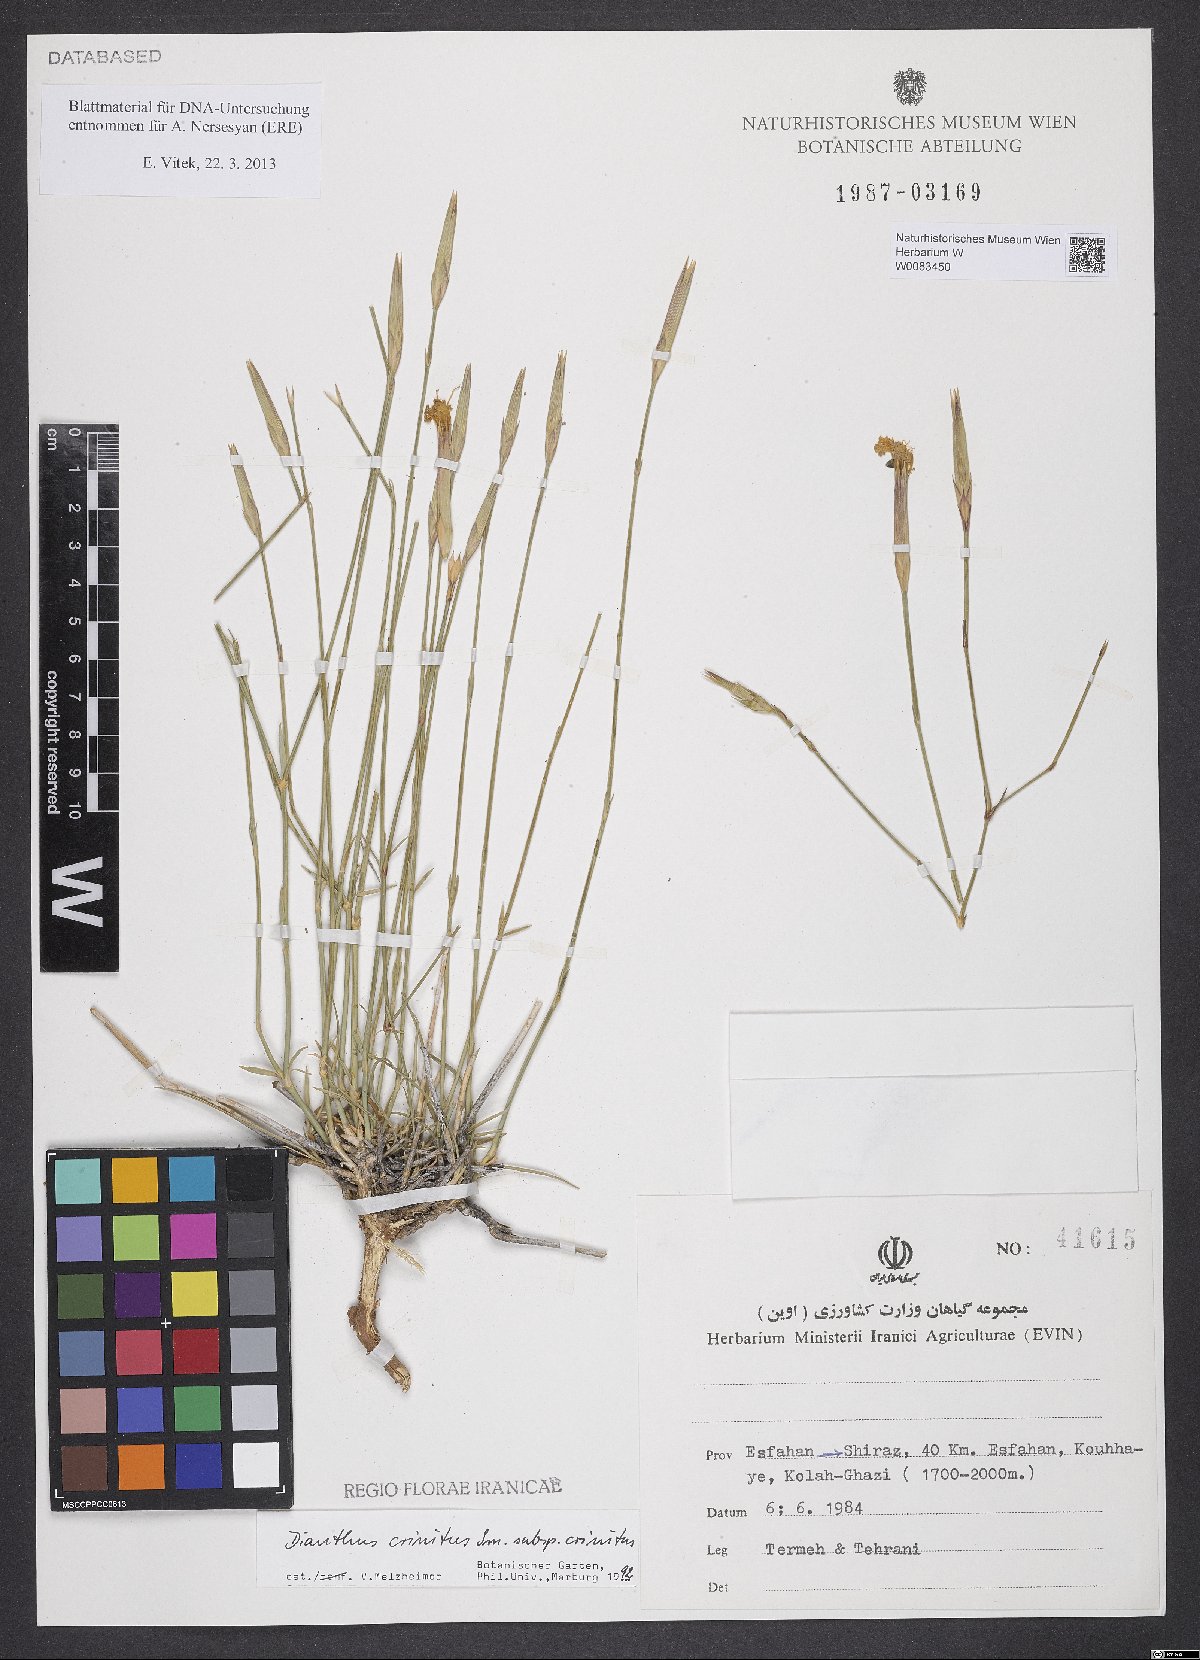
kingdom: Plantae
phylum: Tracheophyta
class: Magnoliopsida
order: Caryophyllales
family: Caryophyllaceae
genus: Dianthus
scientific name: Dianthus crinitus
